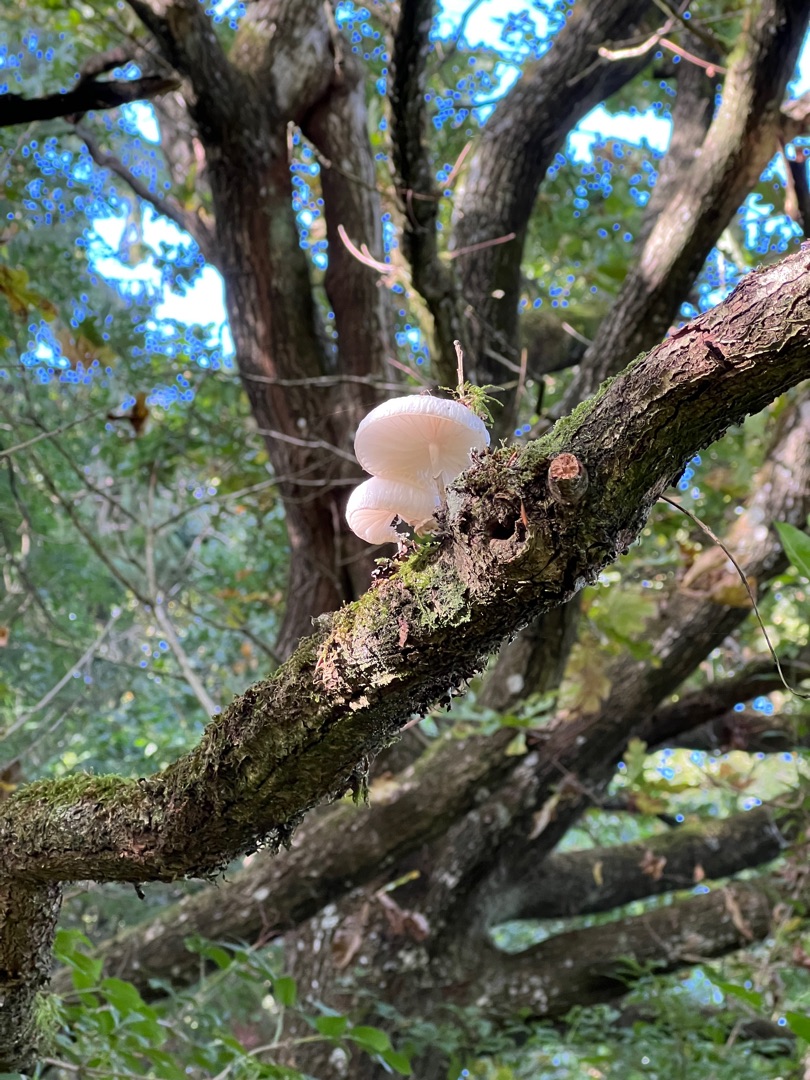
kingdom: Fungi
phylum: Basidiomycota
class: Agaricomycetes
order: Agaricales
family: Physalacriaceae
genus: Mucidula
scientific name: Mucidula mucida
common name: Porcelænshat
